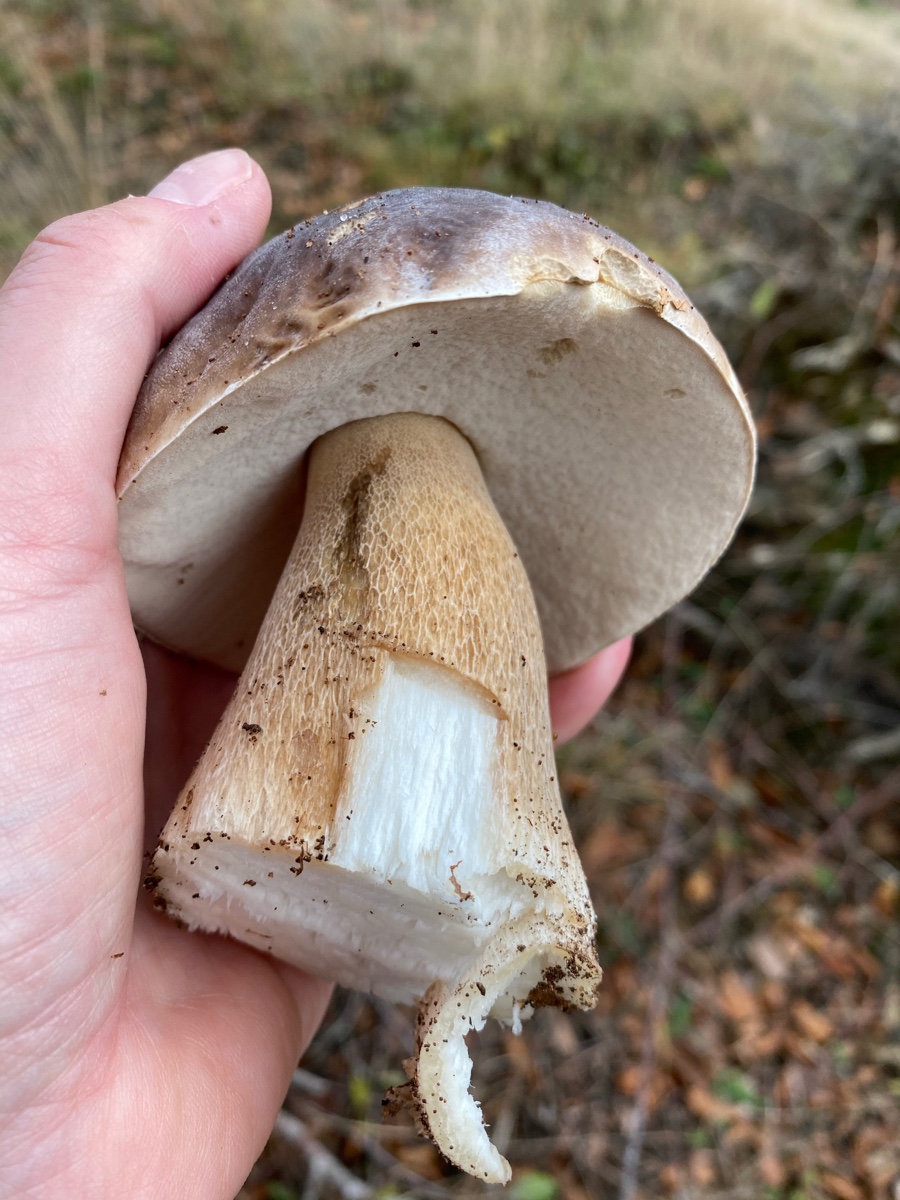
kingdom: Fungi
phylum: Basidiomycota
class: Agaricomycetes
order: Boletales
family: Boletaceae
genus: Boletus
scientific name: Boletus reticulatus
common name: sommer-rørhat
